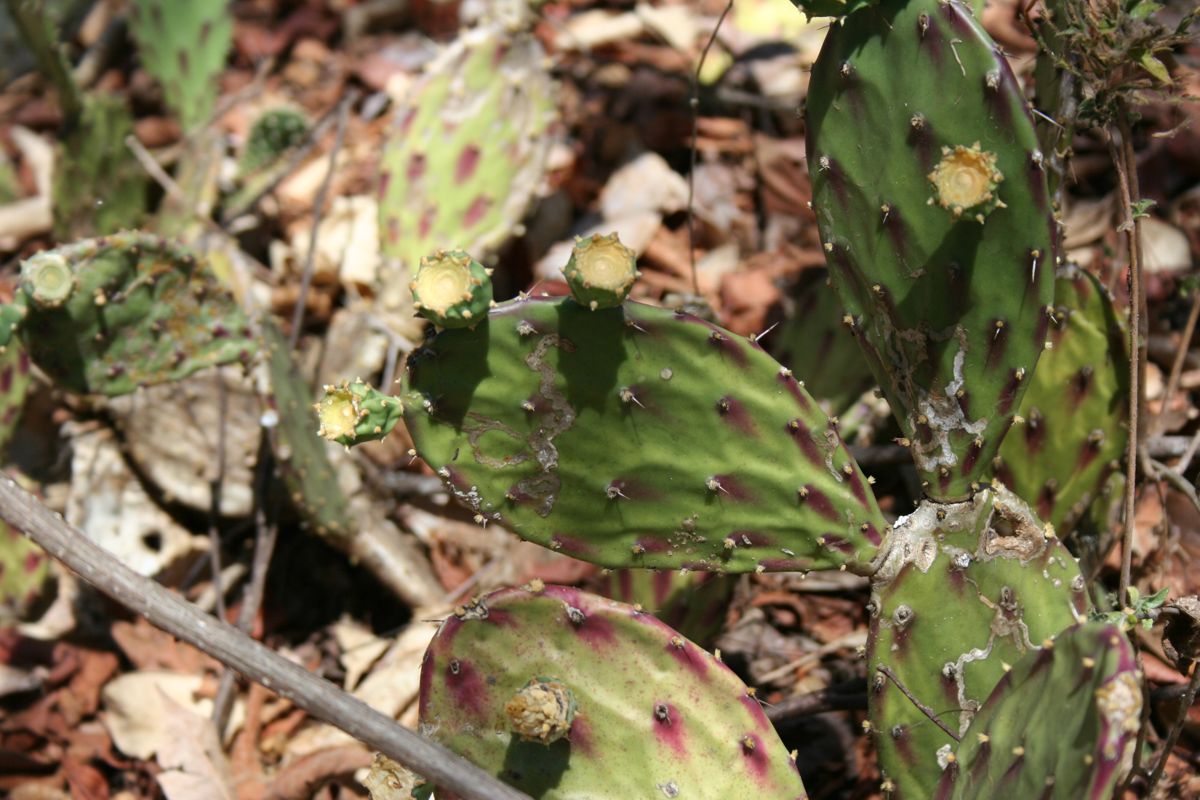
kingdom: Plantae
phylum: Tracheophyta
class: Magnoliopsida
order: Caryophyllales
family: Cactaceae
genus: Opuntia
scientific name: Opuntia decumbens
